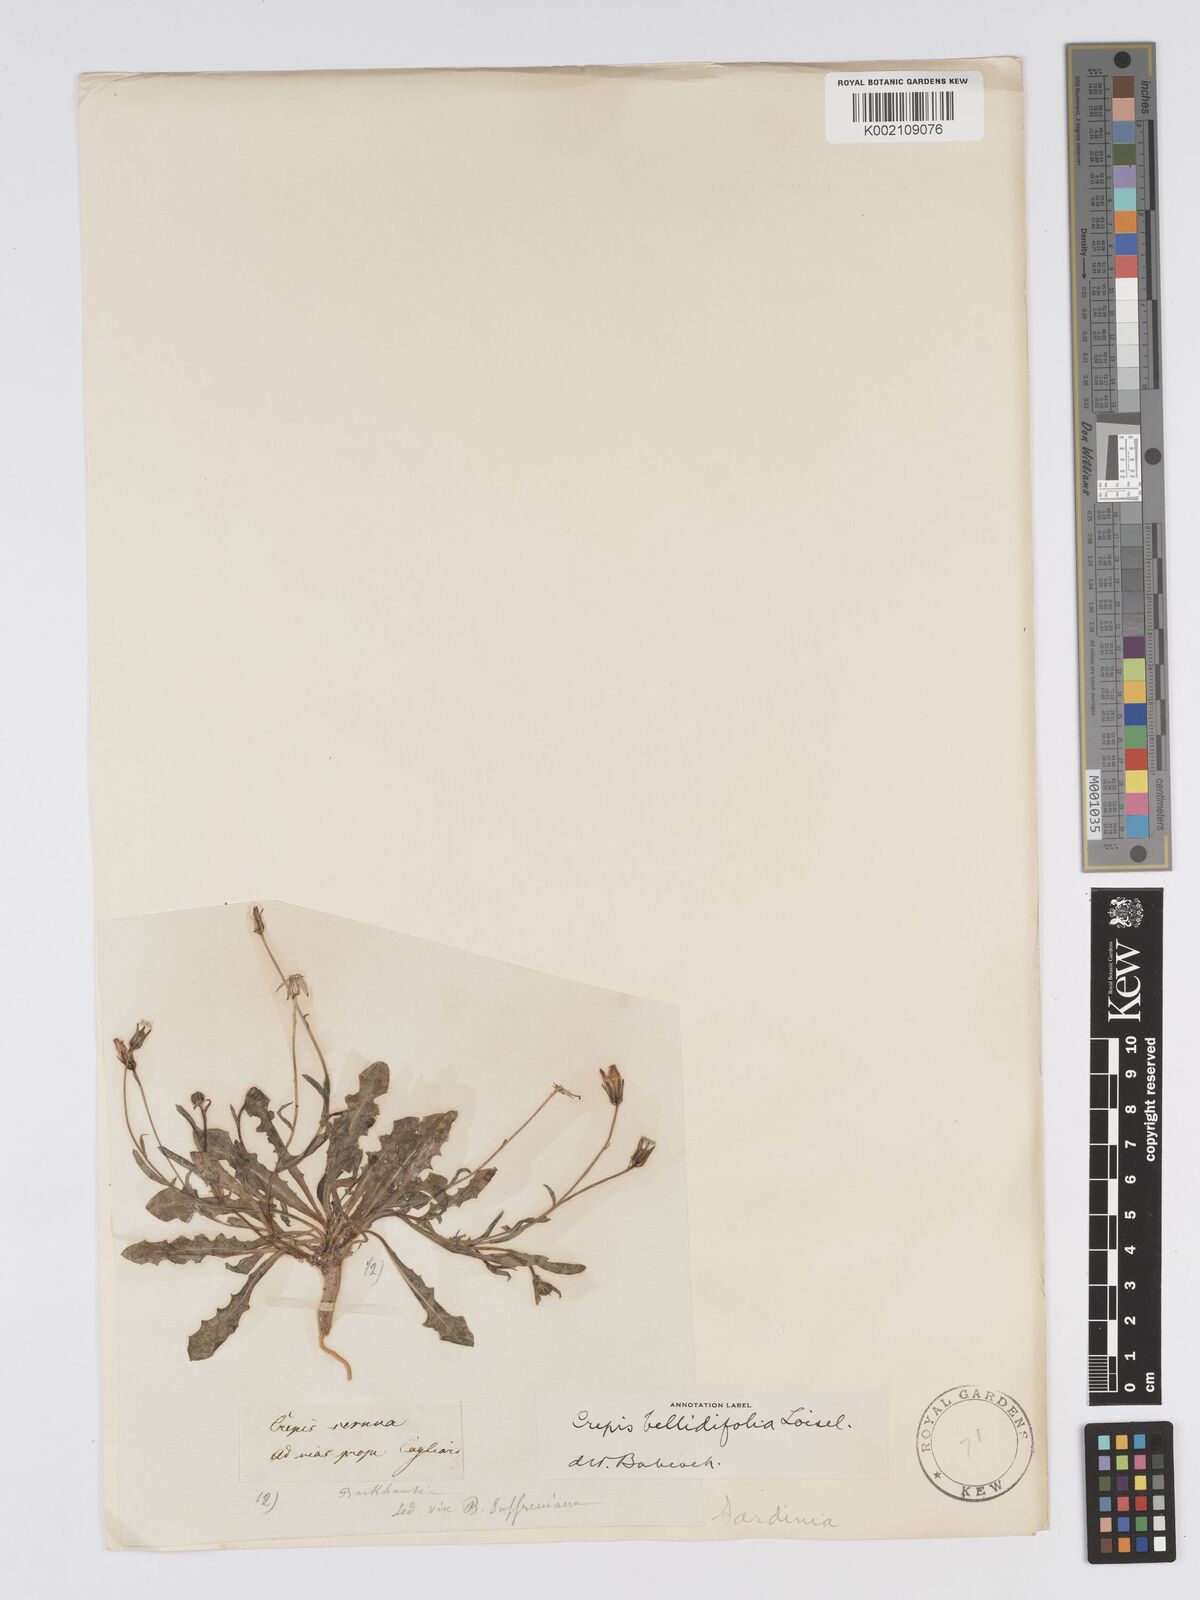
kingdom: Plantae
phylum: Tracheophyta
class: Magnoliopsida
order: Asterales
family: Asteraceae
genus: Crepis
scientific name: Crepis bellidifolia
